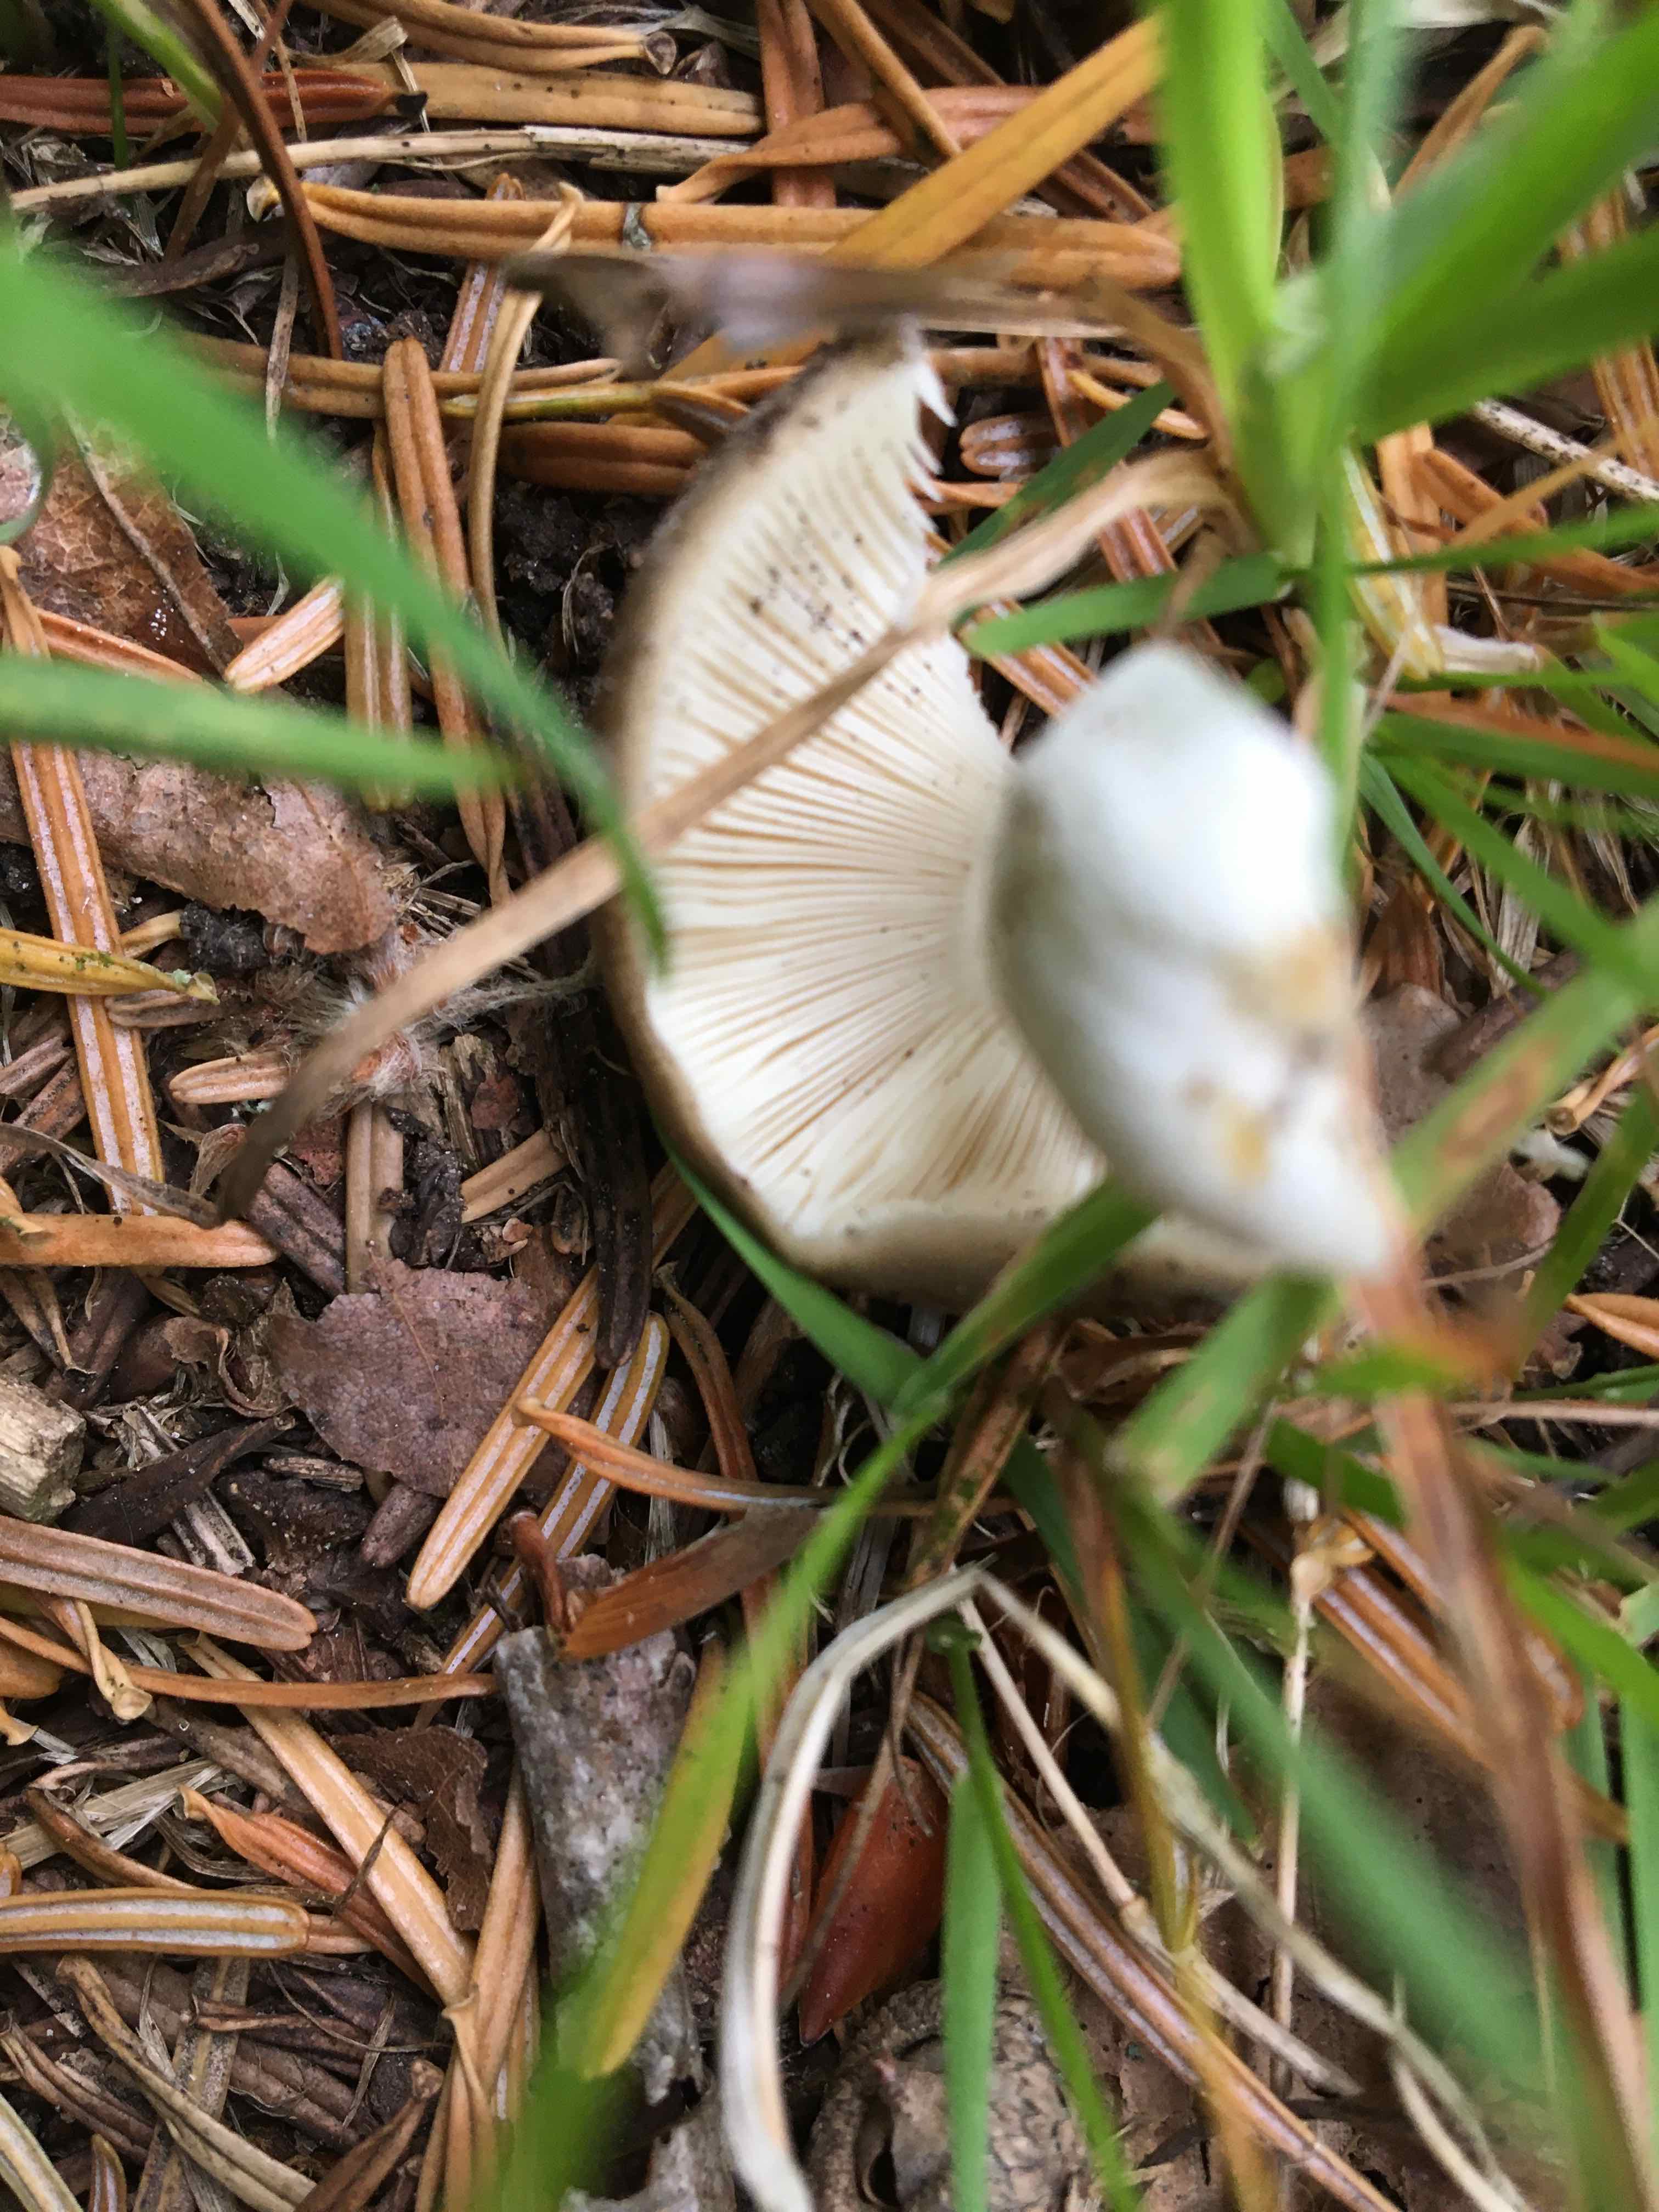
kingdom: Fungi
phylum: Basidiomycota
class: Agaricomycetes
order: Russulales
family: Russulaceae
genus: Russula
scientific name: Russula
